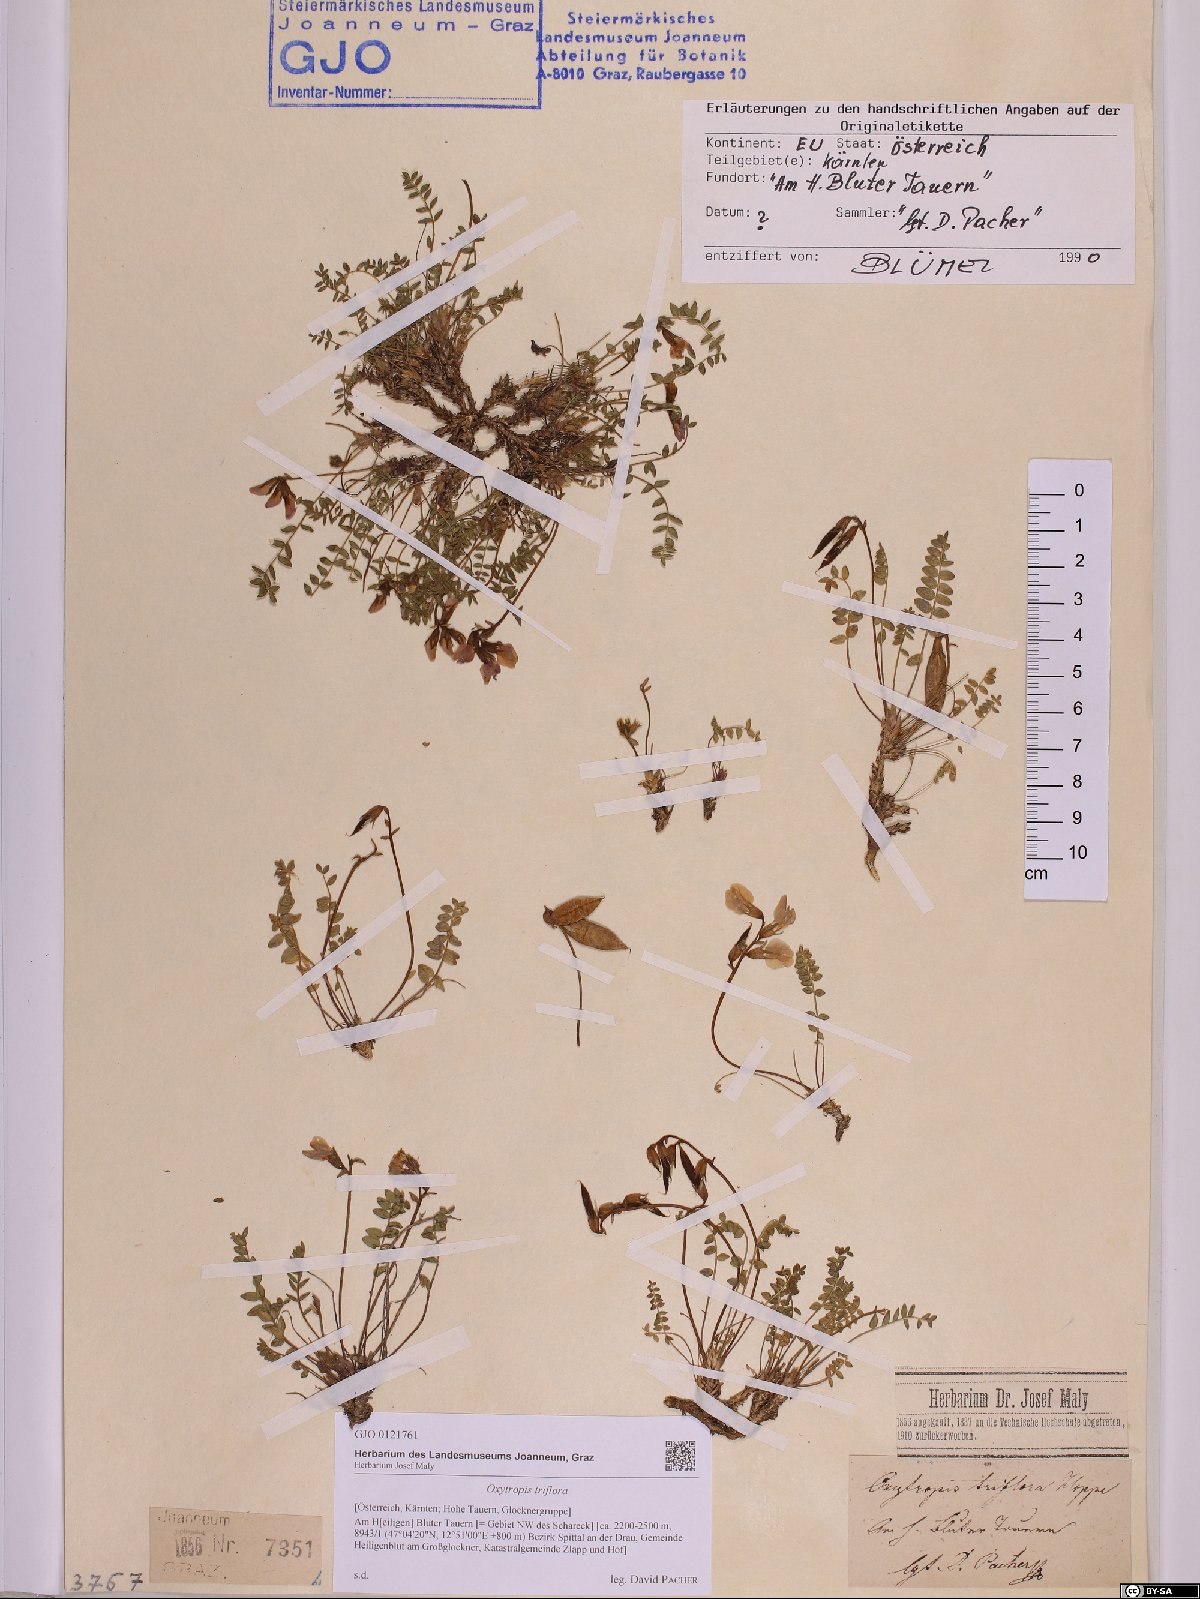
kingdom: Plantae
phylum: Tracheophyta
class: Magnoliopsida
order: Fabales
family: Fabaceae
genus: Oxytropis
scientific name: Oxytropis triflora
